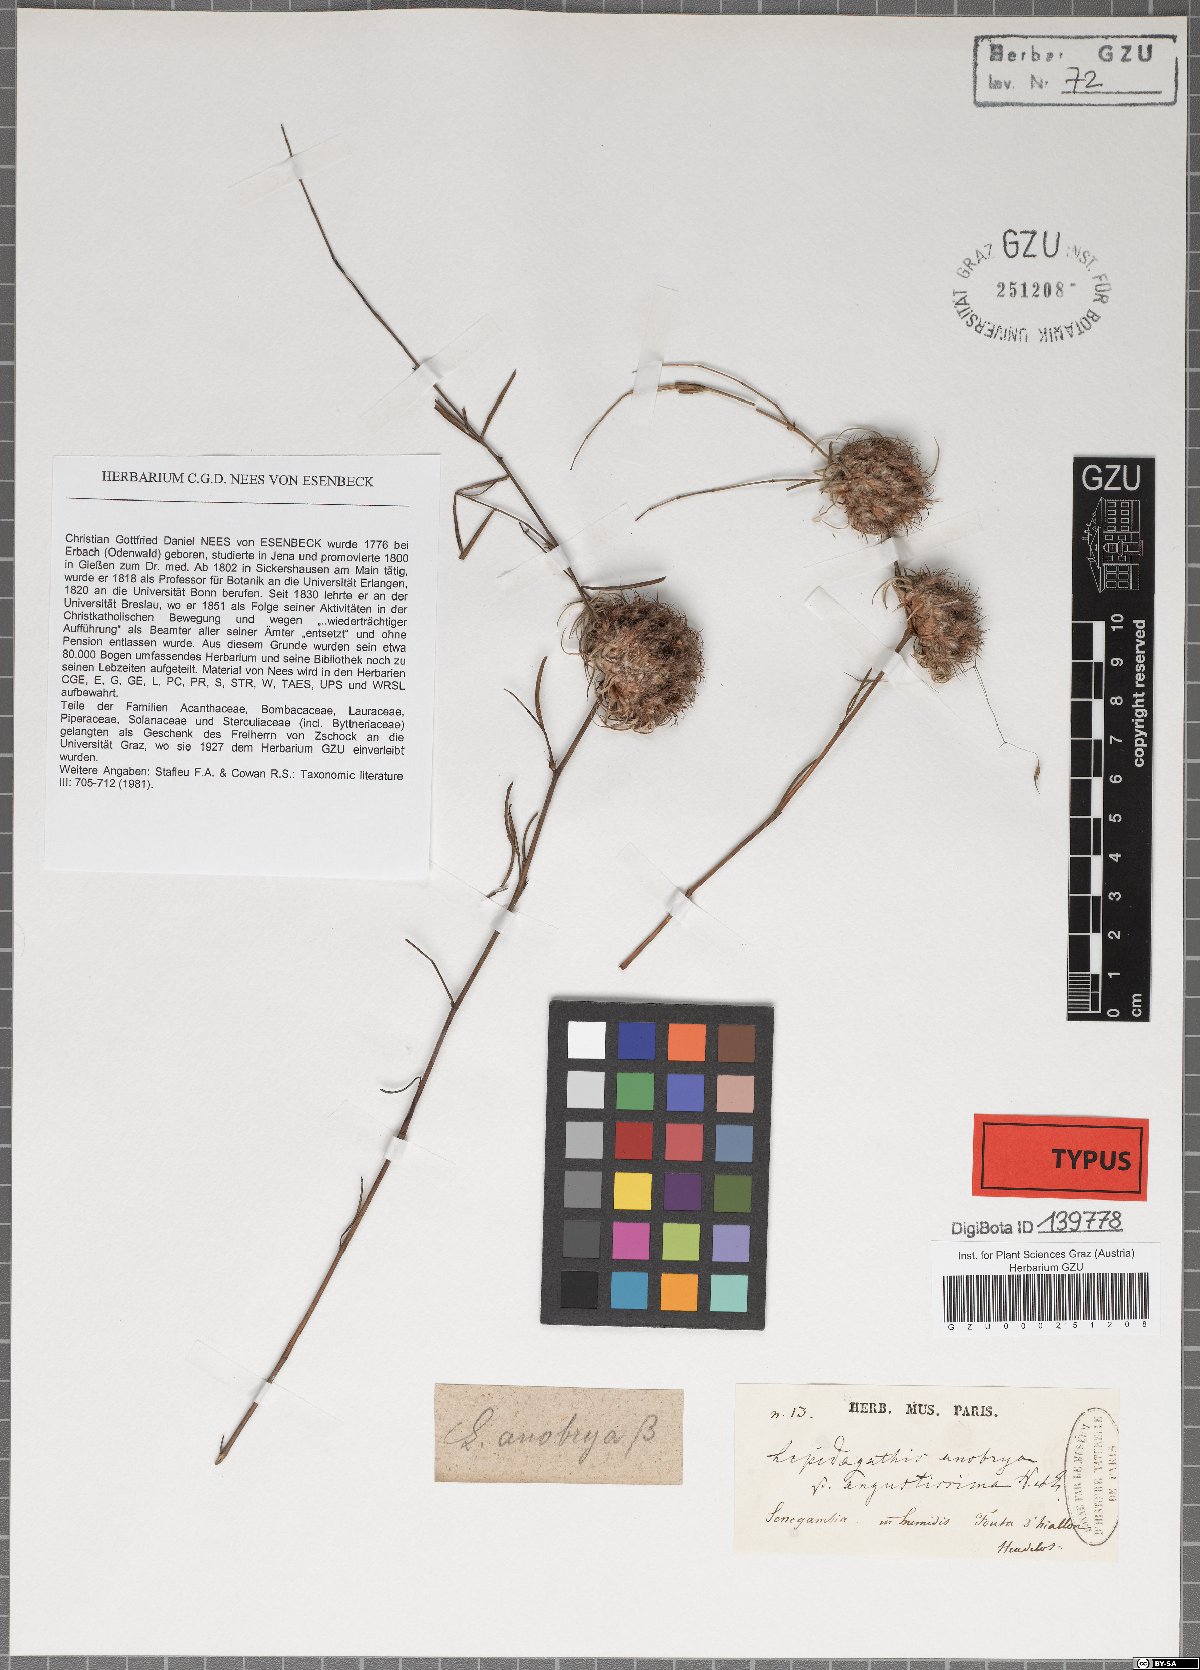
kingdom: Plantae
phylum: Tracheophyta
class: Magnoliopsida
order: Lamiales
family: Acanthaceae
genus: Lepidagathis
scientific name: Lepidagathis fimbriata
